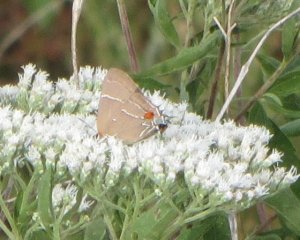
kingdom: Animalia
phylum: Arthropoda
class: Insecta
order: Lepidoptera
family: Lycaenidae
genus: Parrhasius
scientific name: Parrhasius m-album
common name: White-m Hairstreak
